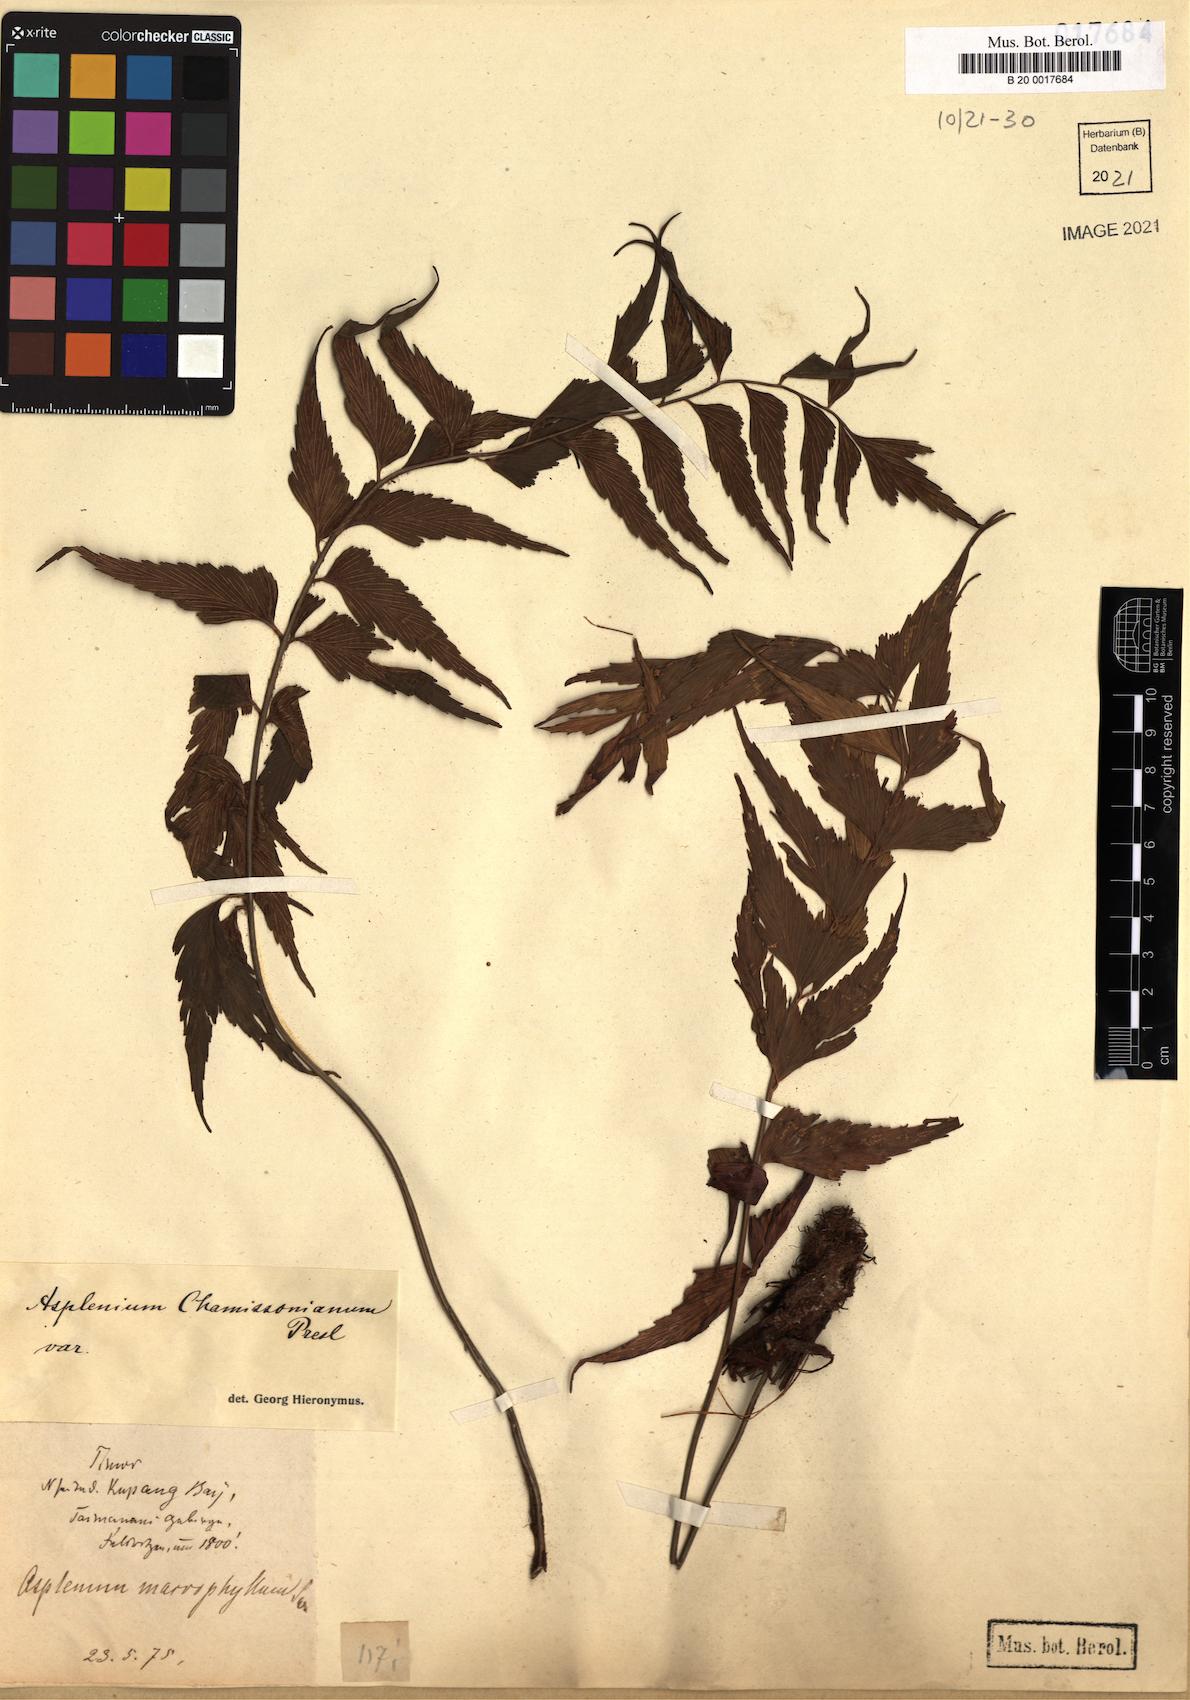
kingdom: Plantae
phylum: Tracheophyta
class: Polypodiopsida
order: Polypodiales
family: Aspleniaceae
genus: Asplenium
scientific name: Asplenium Tarachia chamissoniana
